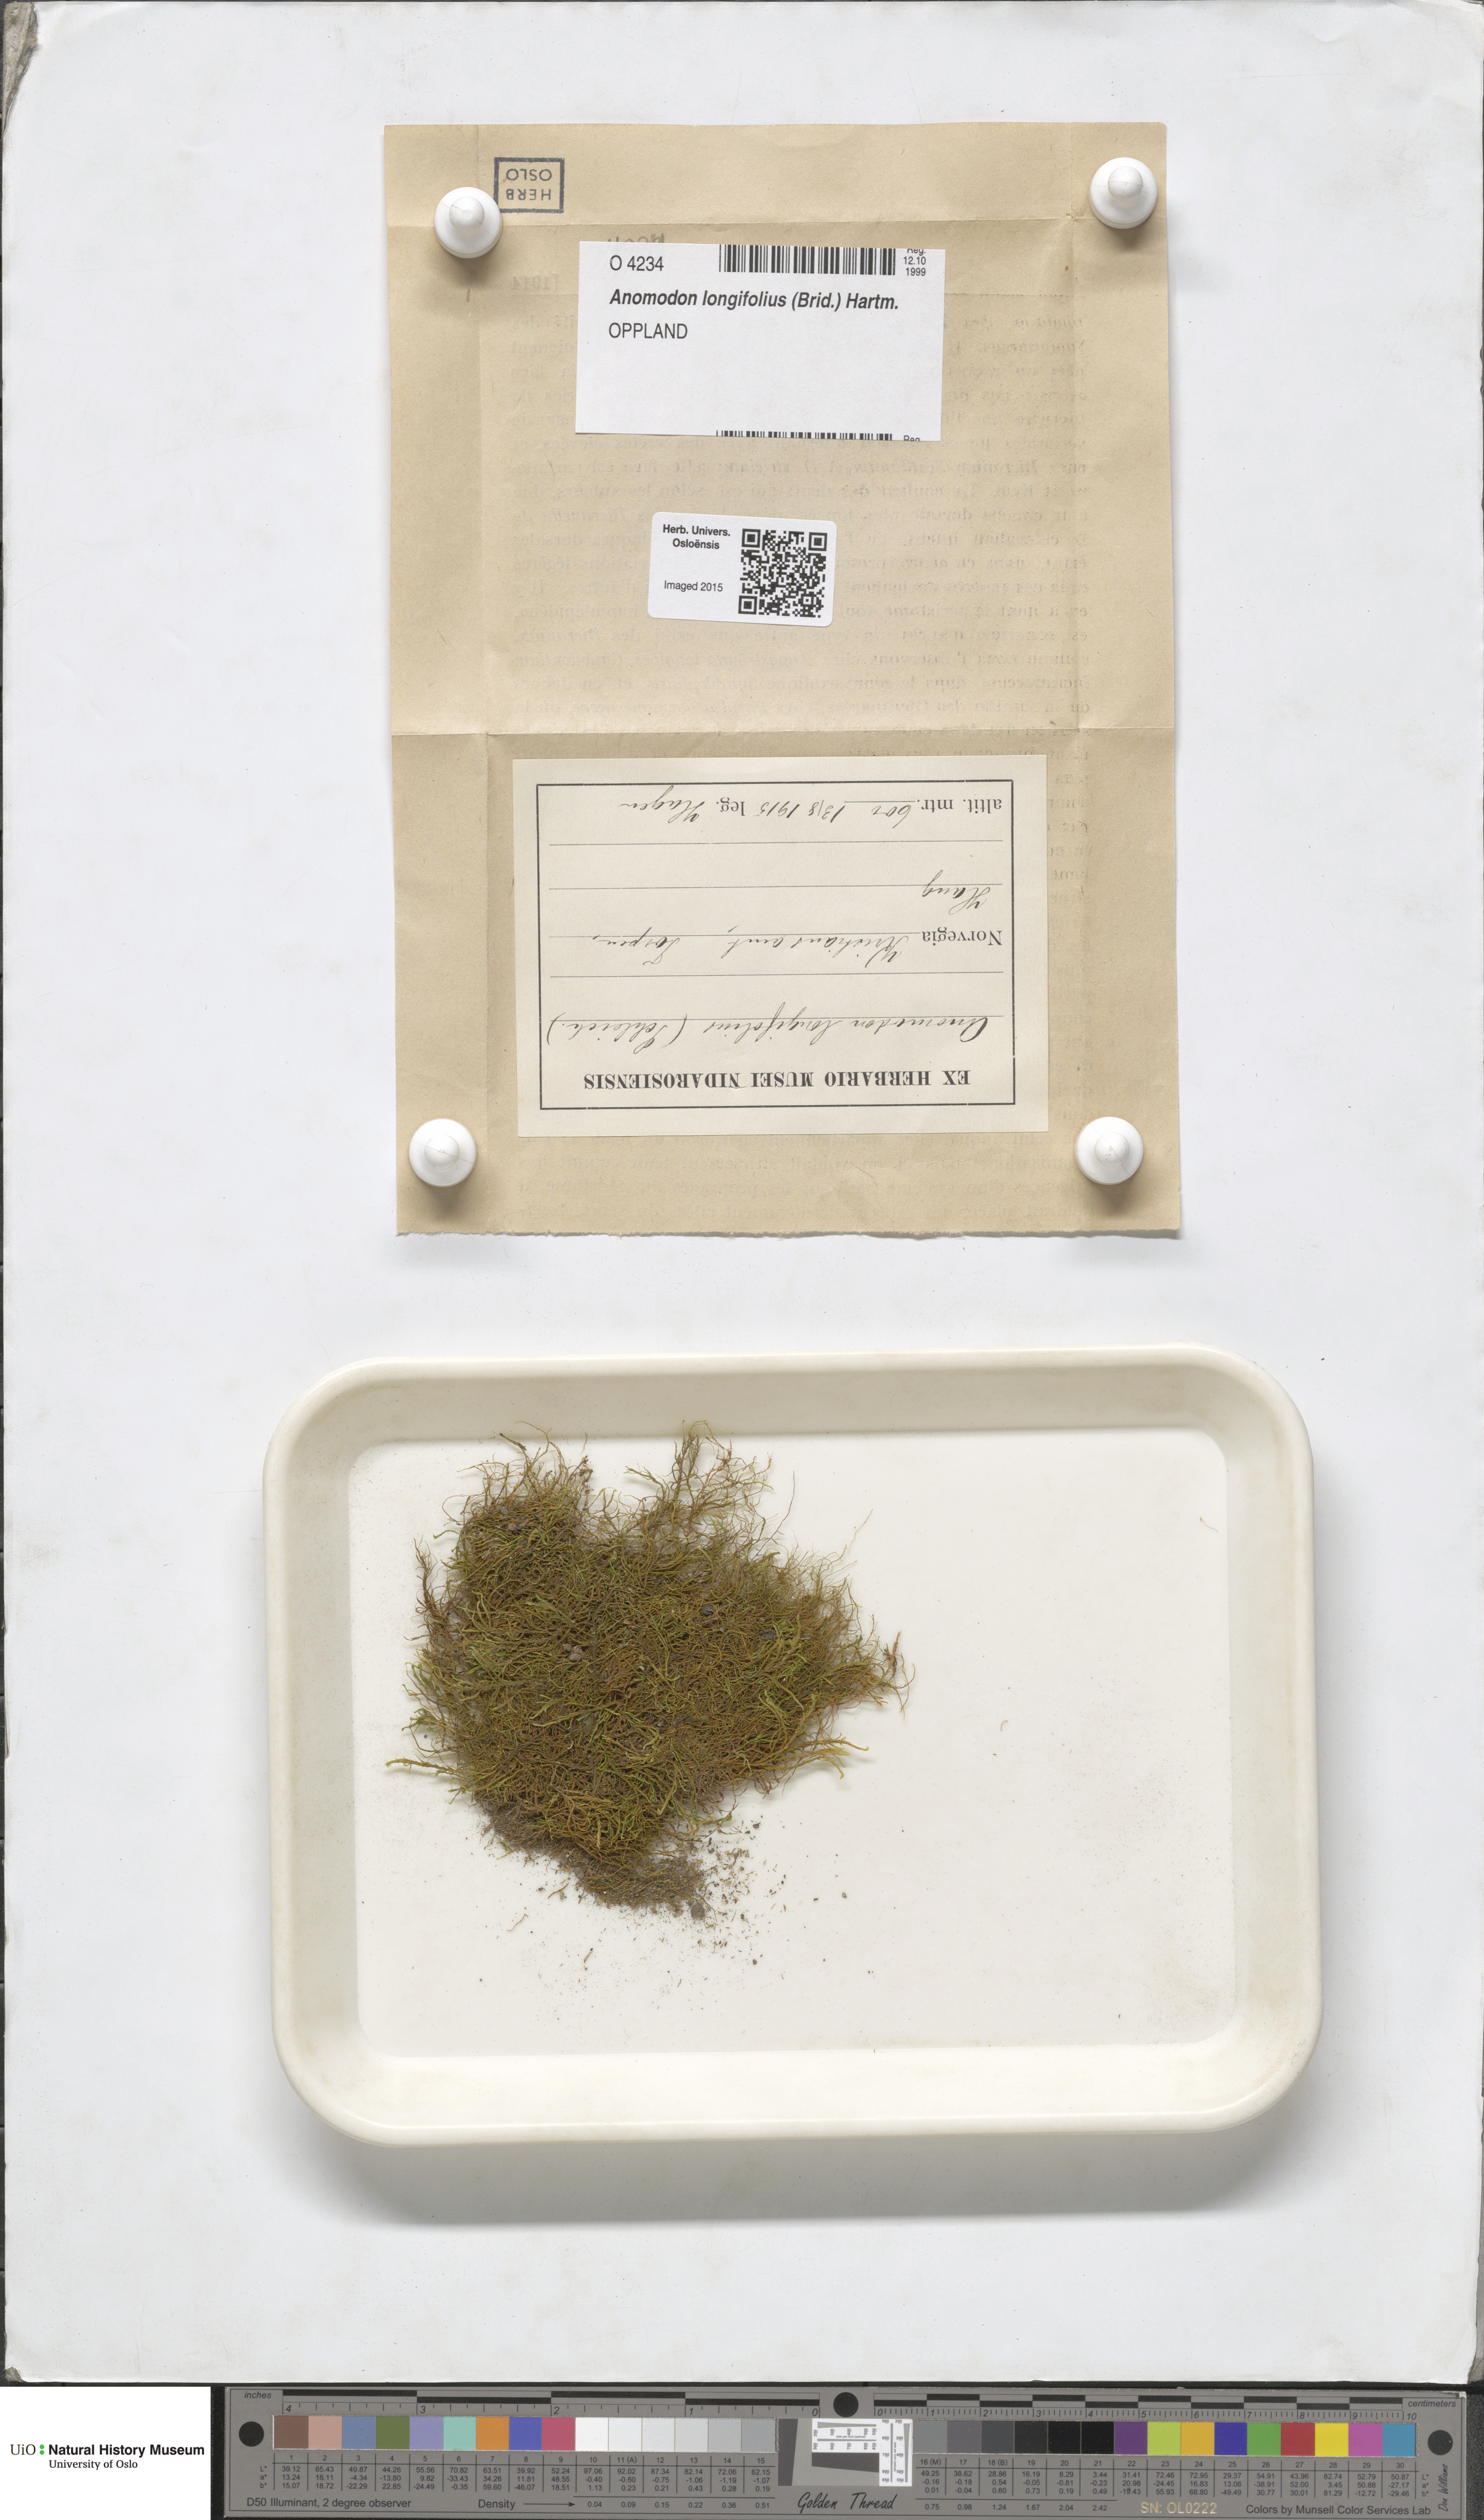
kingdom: Plantae
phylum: Bryophyta
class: Bryopsida
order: Hypnales
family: Anomodontaceae
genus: Anomodontella
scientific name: Anomodontella longifolia
